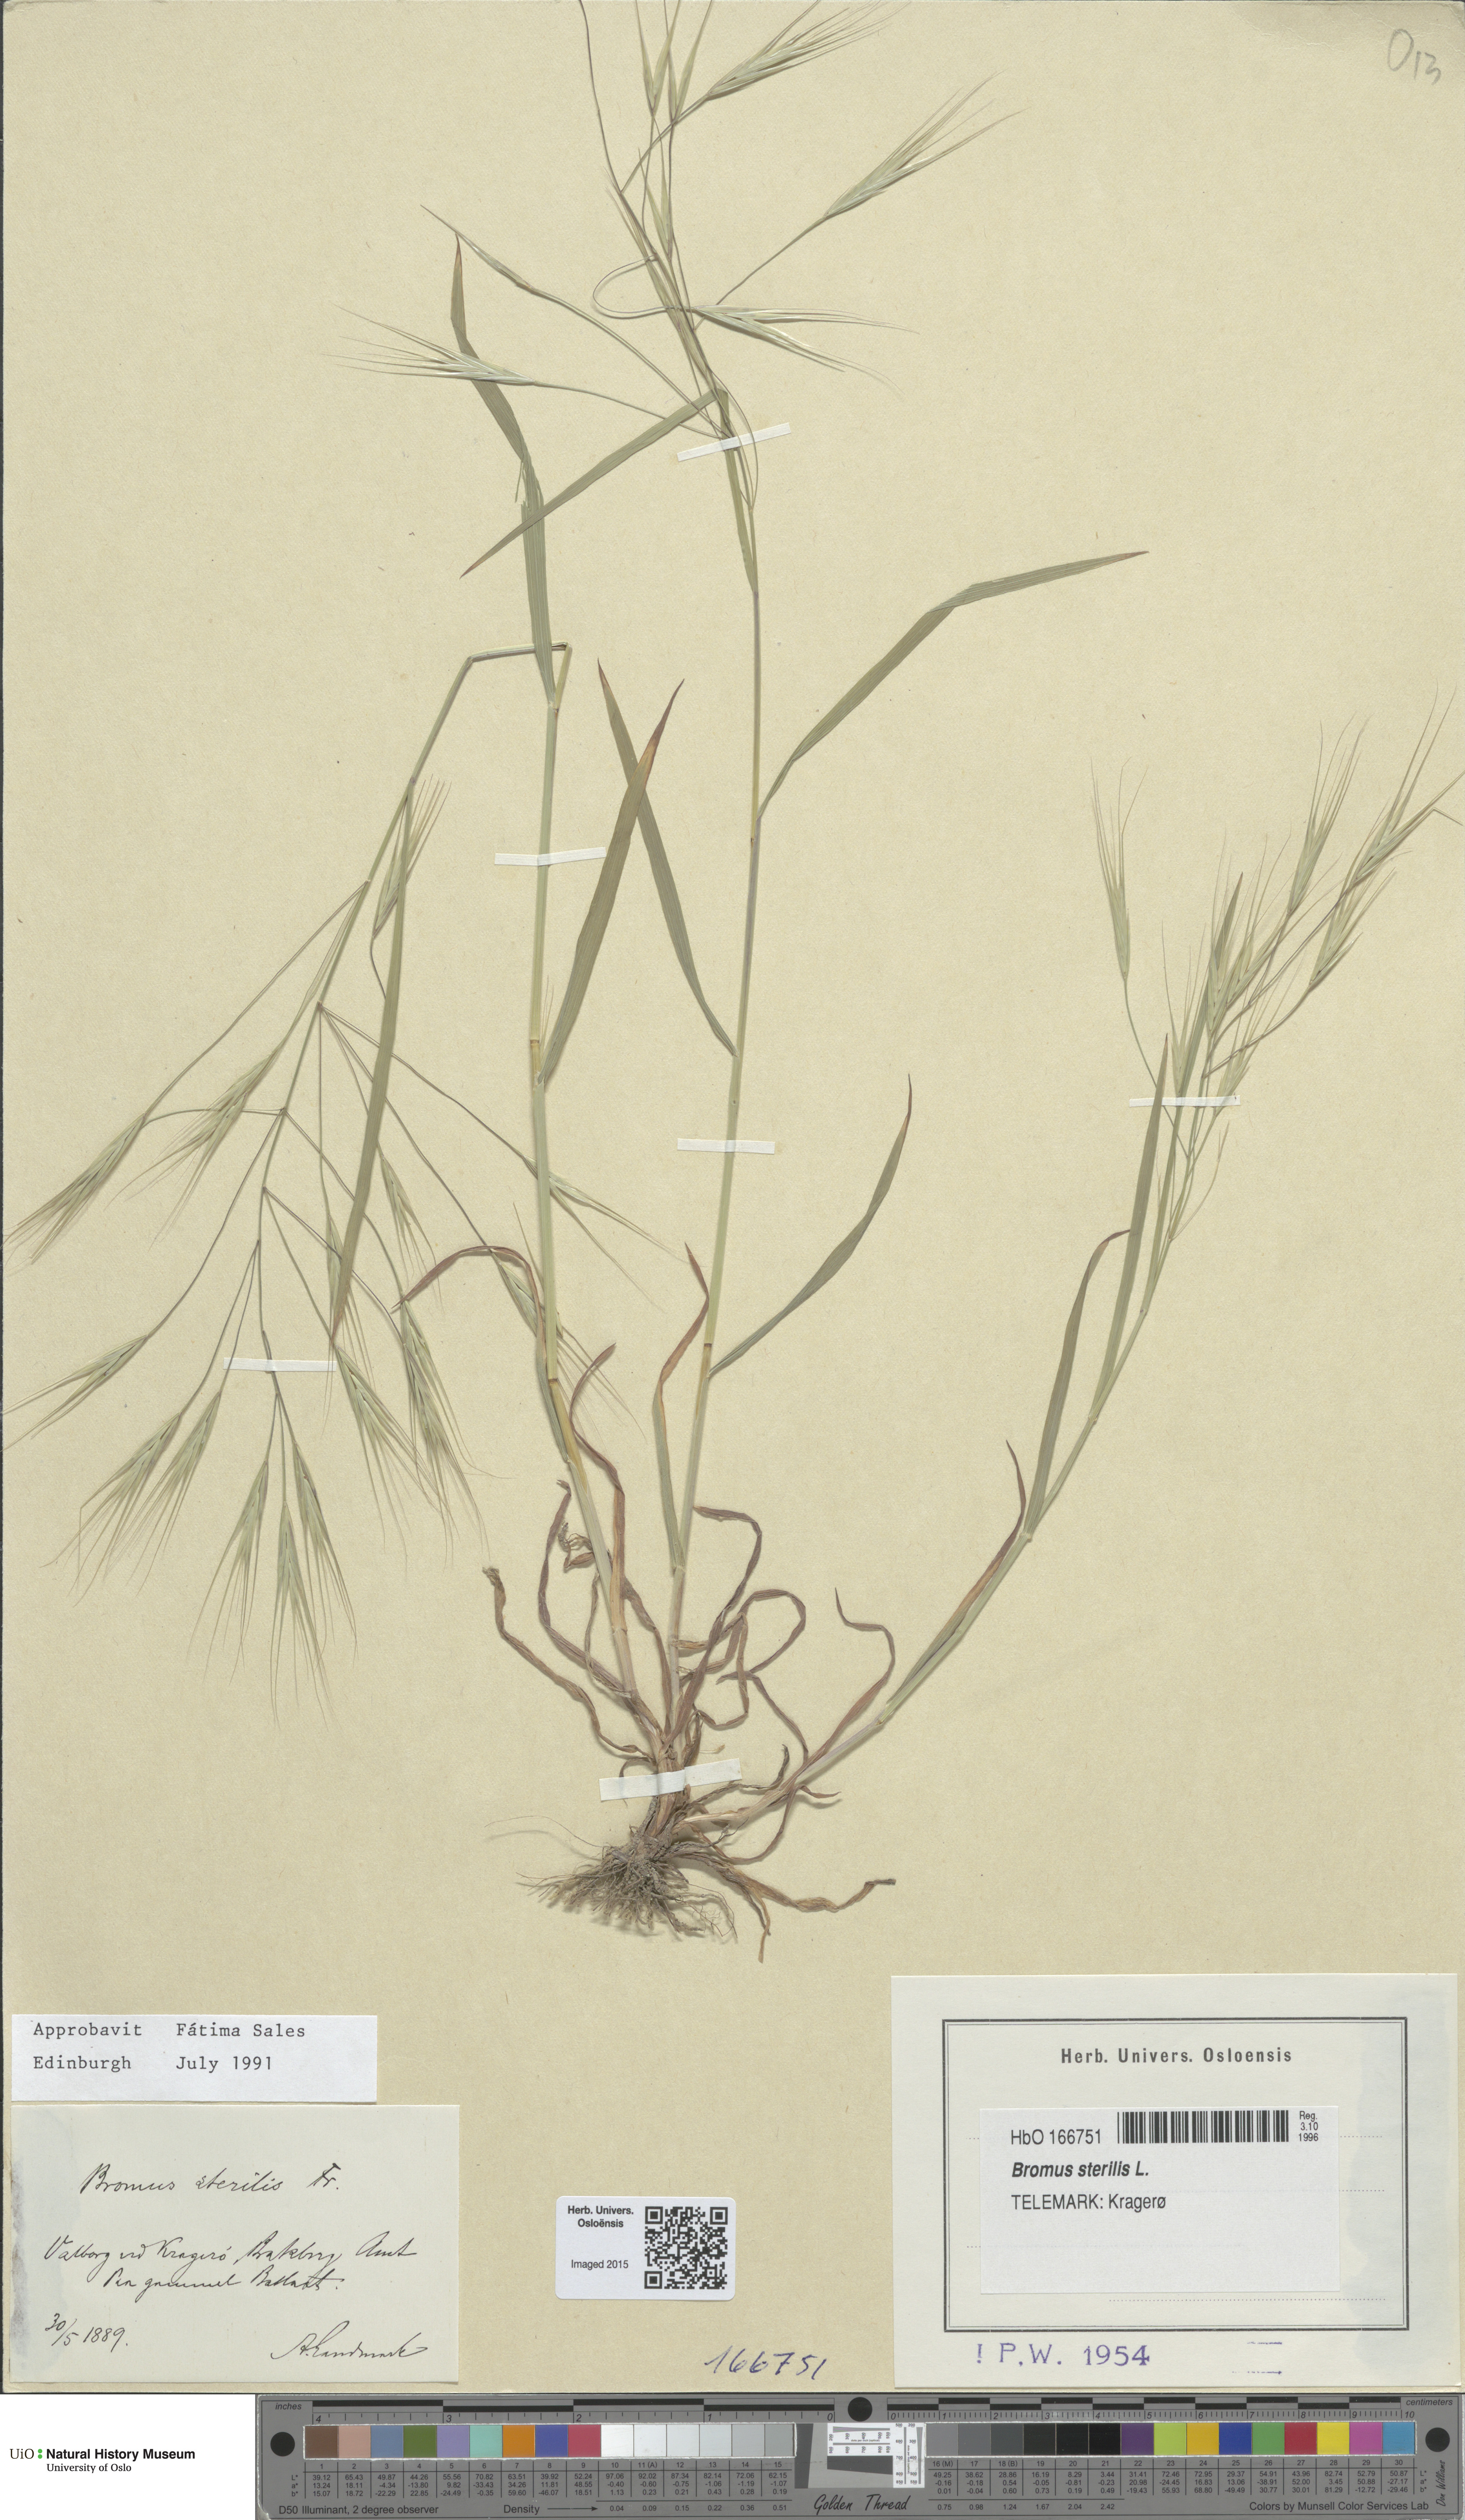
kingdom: Plantae
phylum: Tracheophyta
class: Liliopsida
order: Poales
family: Poaceae
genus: Bromus
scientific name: Bromus sterilis
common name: Poverty brome
